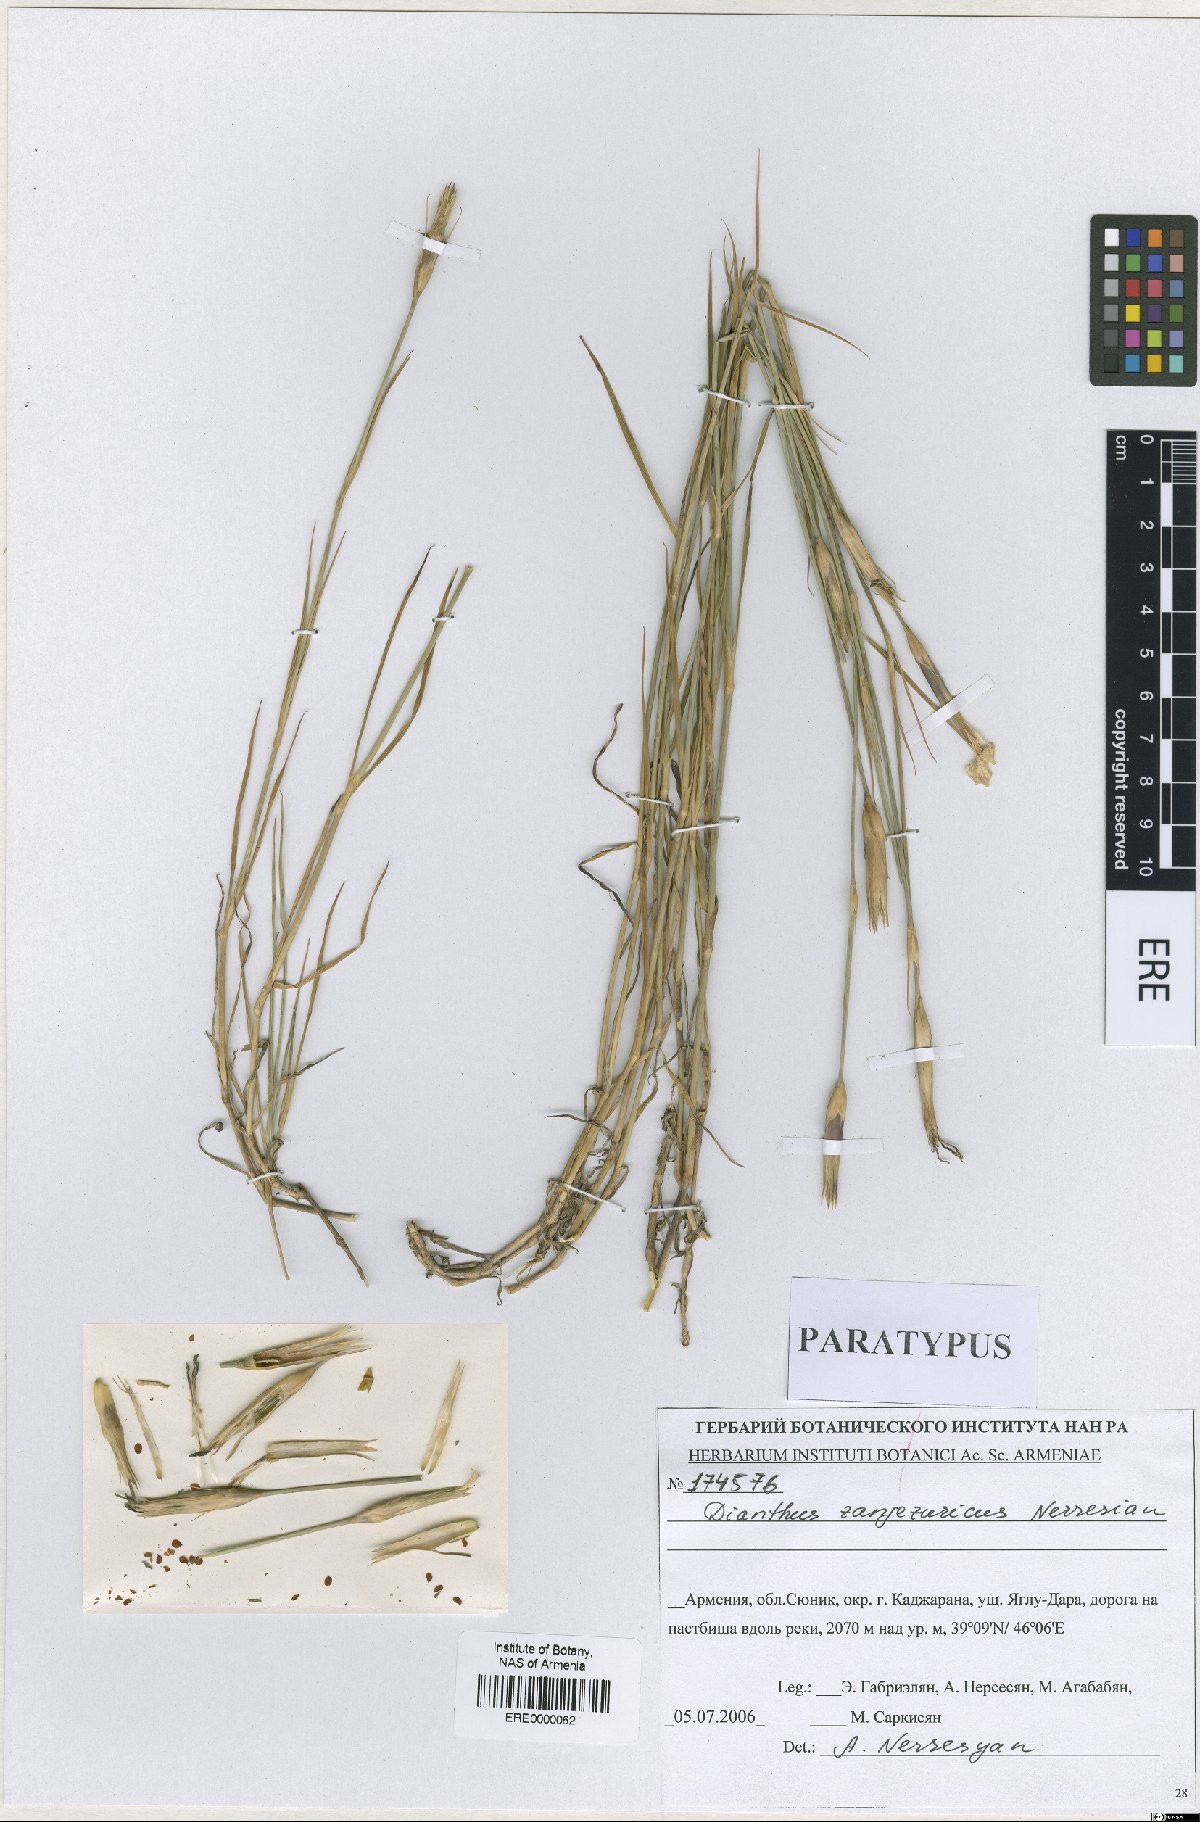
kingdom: Plantae
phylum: Tracheophyta
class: Magnoliopsida
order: Caryophyllales
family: Caryophyllaceae
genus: Dianthus
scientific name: Dianthus zangezuricus
